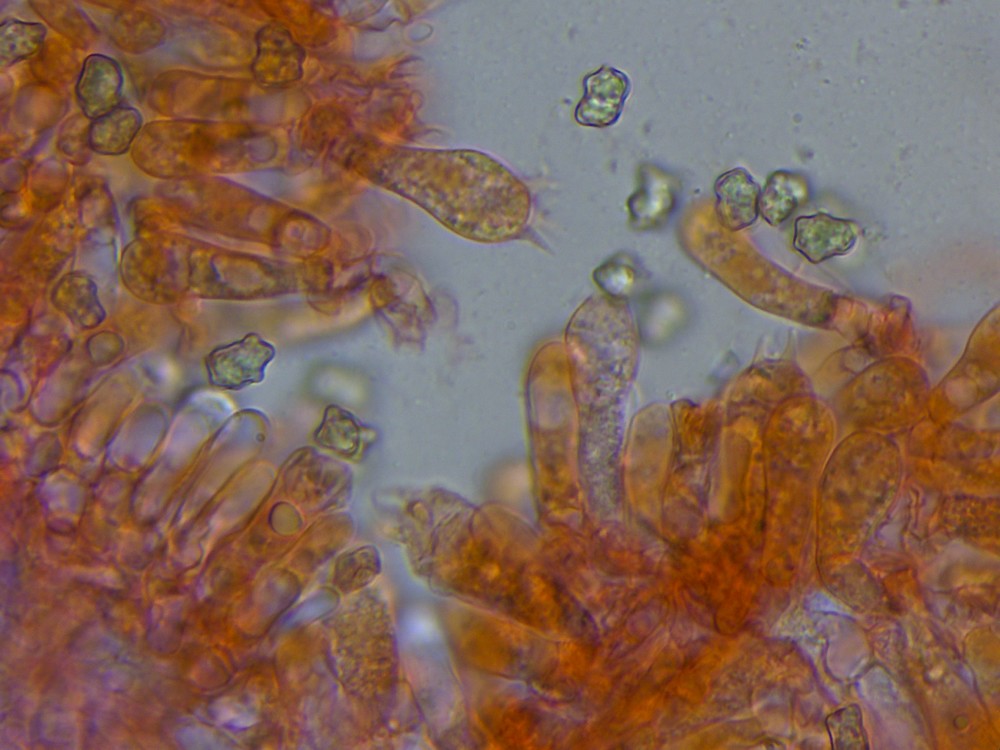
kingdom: Fungi
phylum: Basidiomycota
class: Agaricomycetes
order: Agaricales
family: Inocybaceae
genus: Inocybe
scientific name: Inocybe
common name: trævlhat
